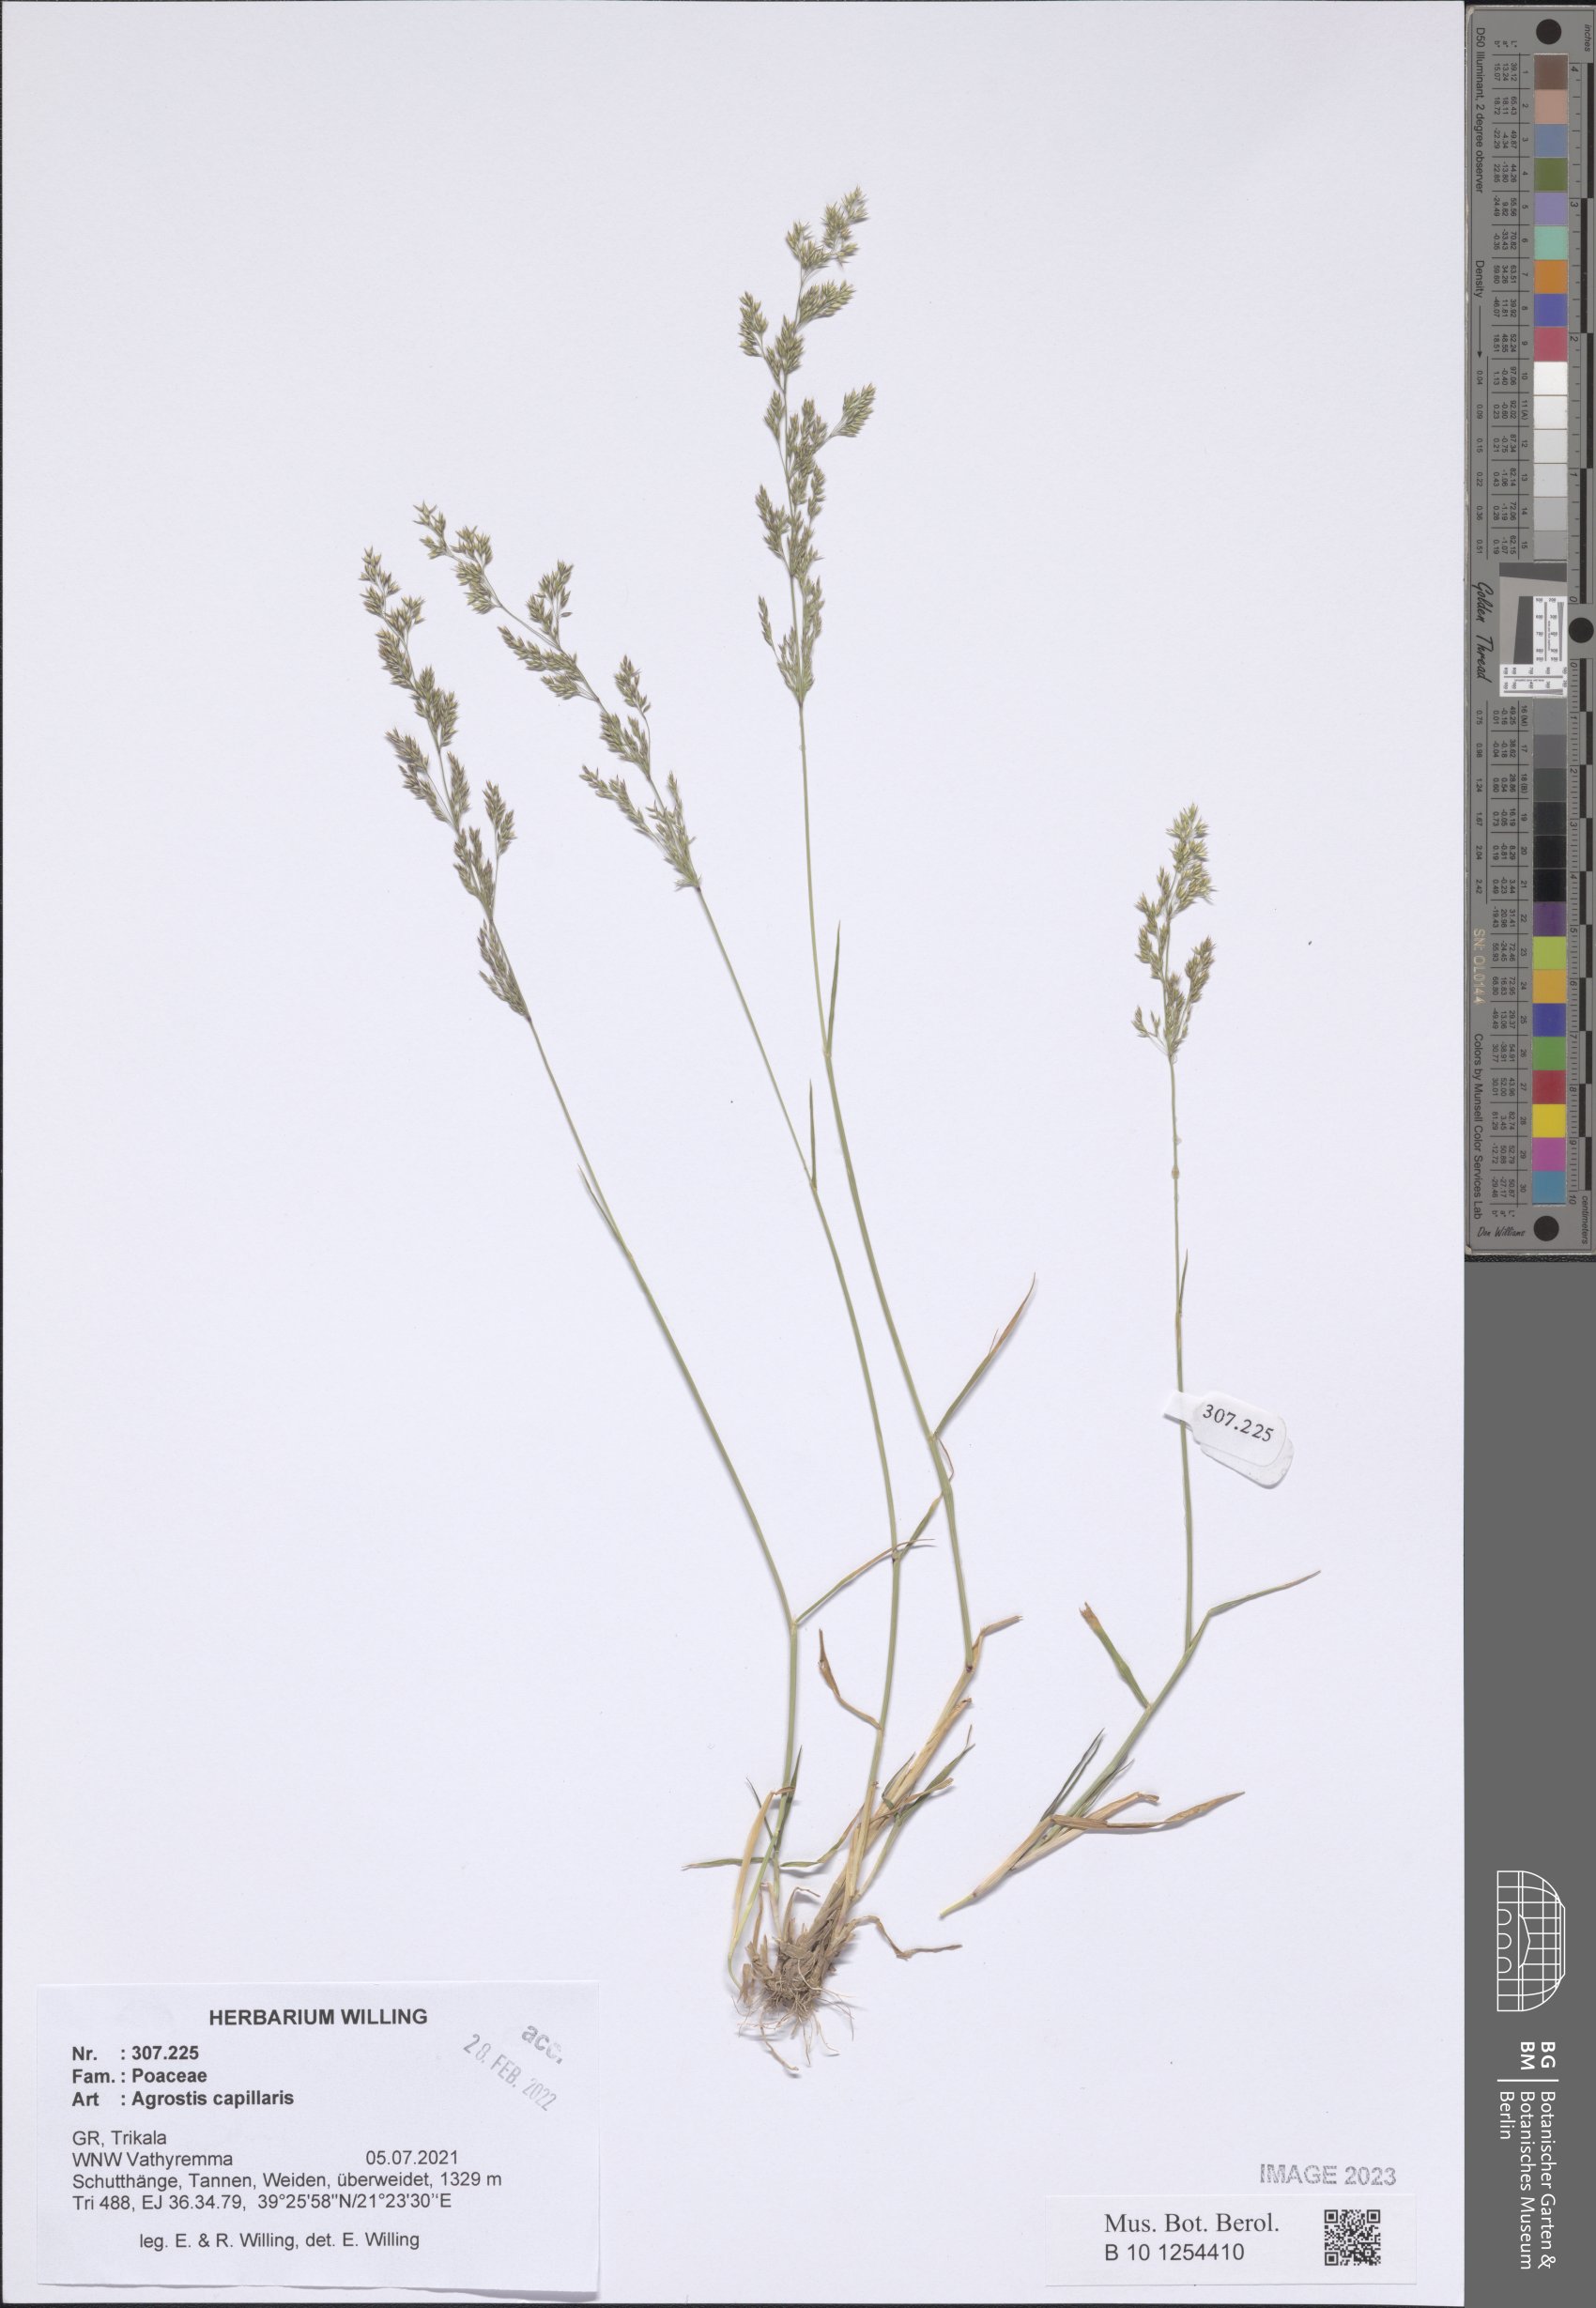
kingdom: Plantae
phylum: Tracheophyta
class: Liliopsida
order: Poales
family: Poaceae
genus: Agrostis
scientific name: Agrostis capillaris
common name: Colonial bentgrass
